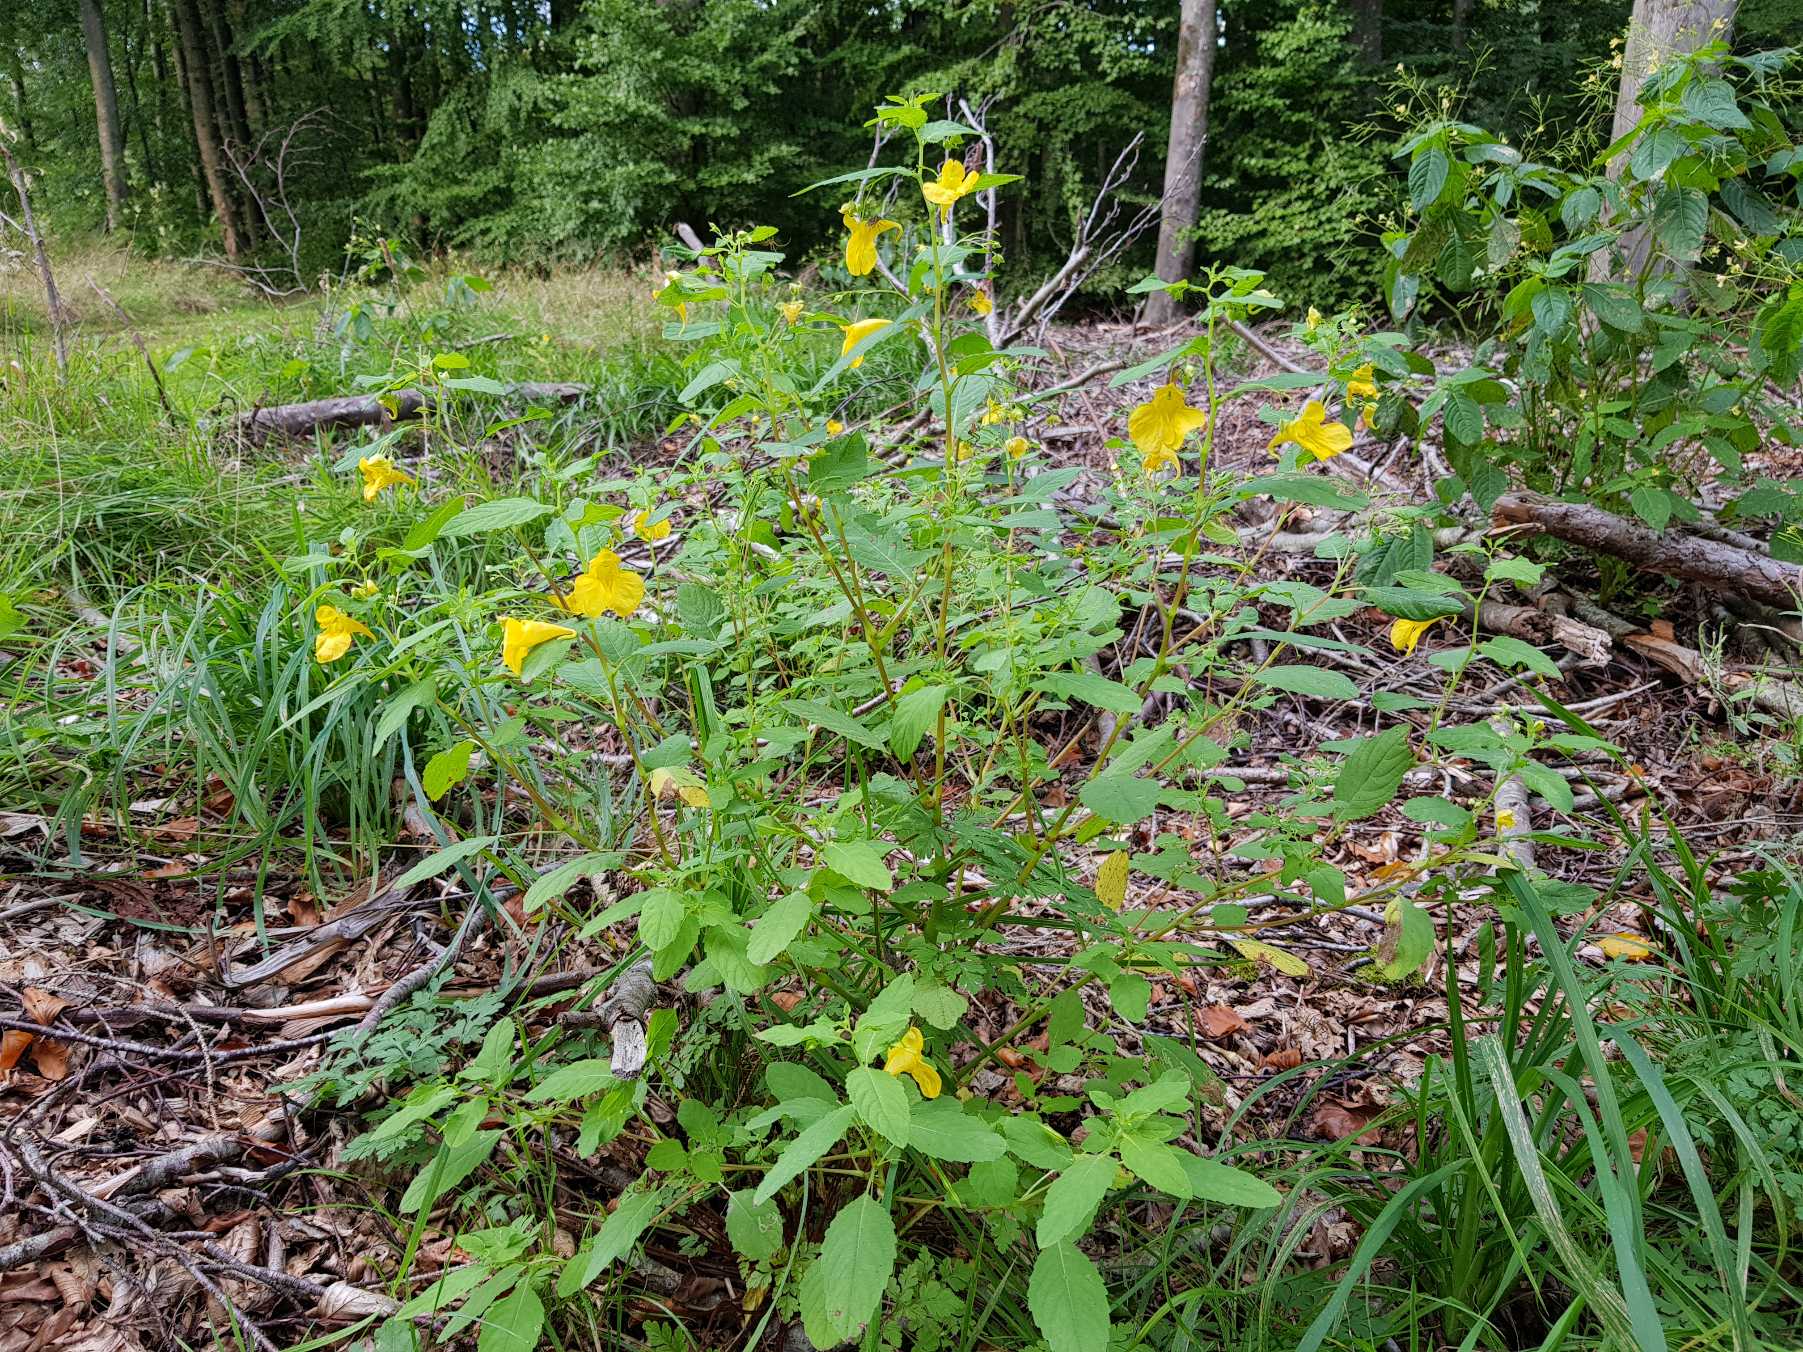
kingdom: Plantae
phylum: Tracheophyta
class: Magnoliopsida
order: Ericales
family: Balsaminaceae
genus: Impatiens
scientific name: Impatiens noli-tangere
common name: Spring-balsamin
